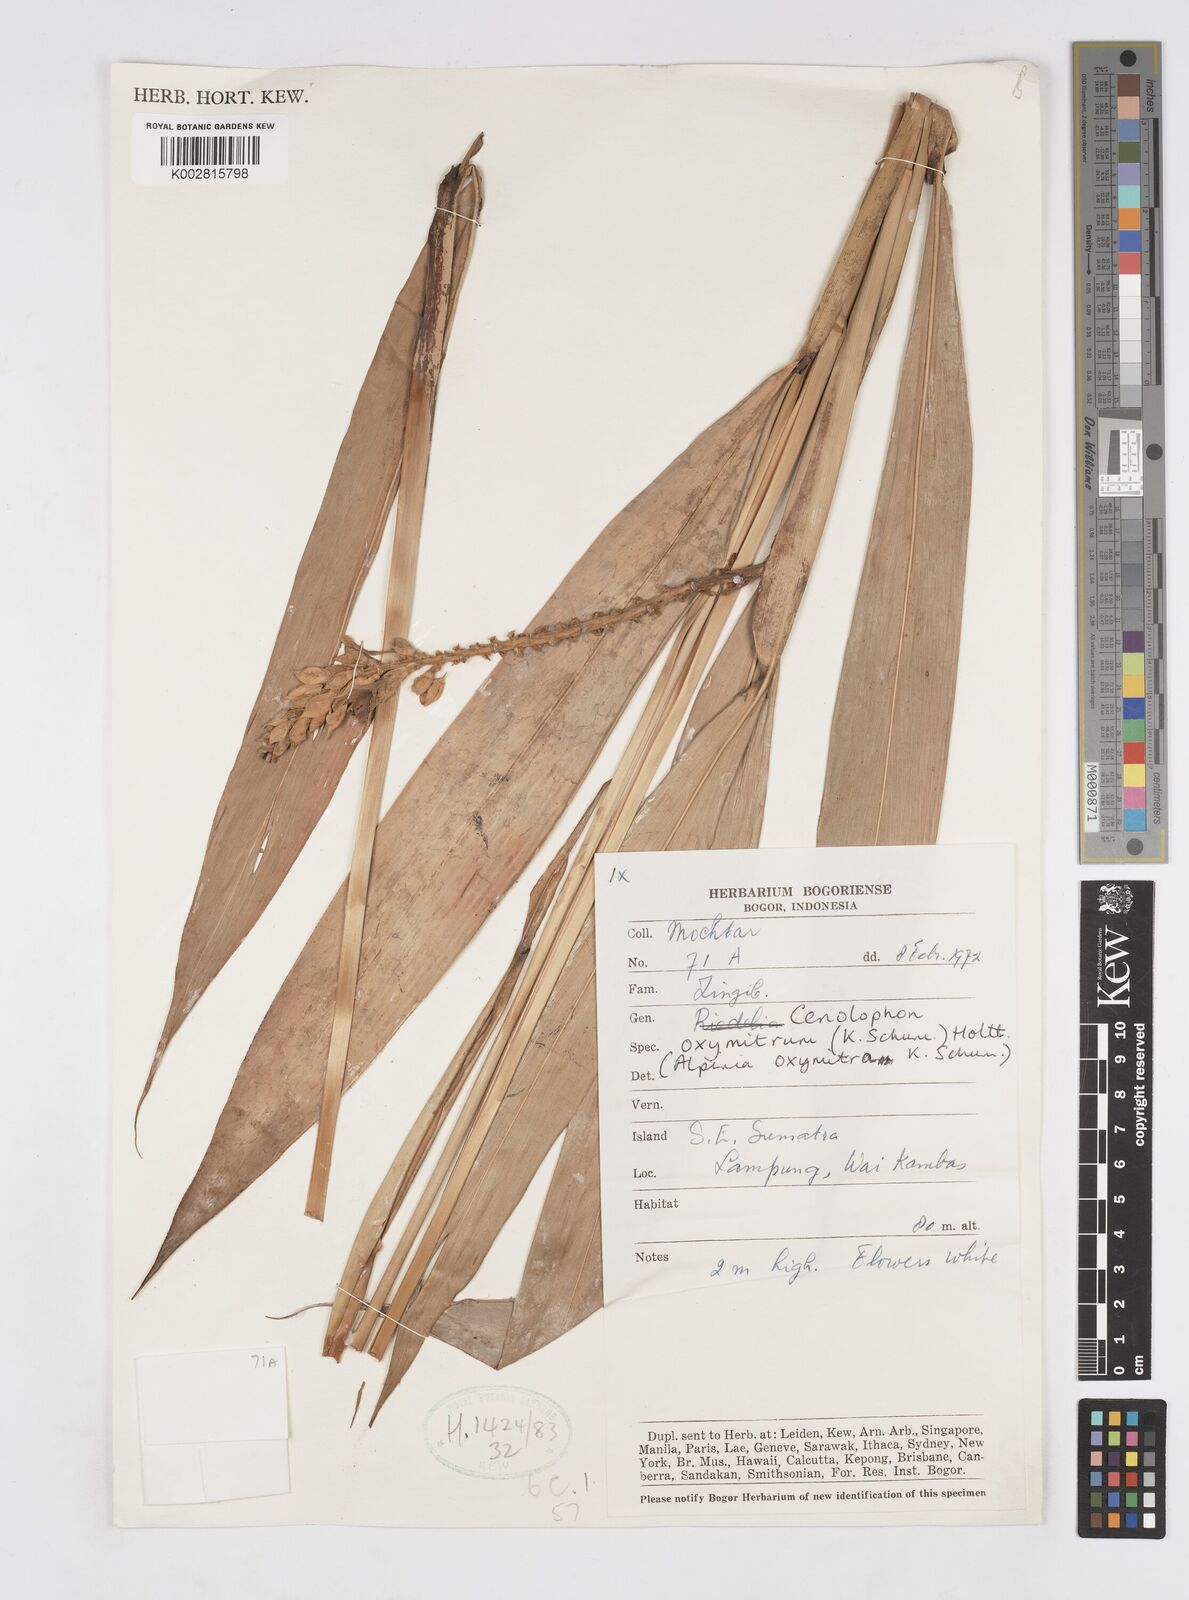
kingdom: Plantae
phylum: Tracheophyta
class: Liliopsida
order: Zingiberales
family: Zingiberaceae
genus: Alpinia
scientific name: Alpinia oxymitra
